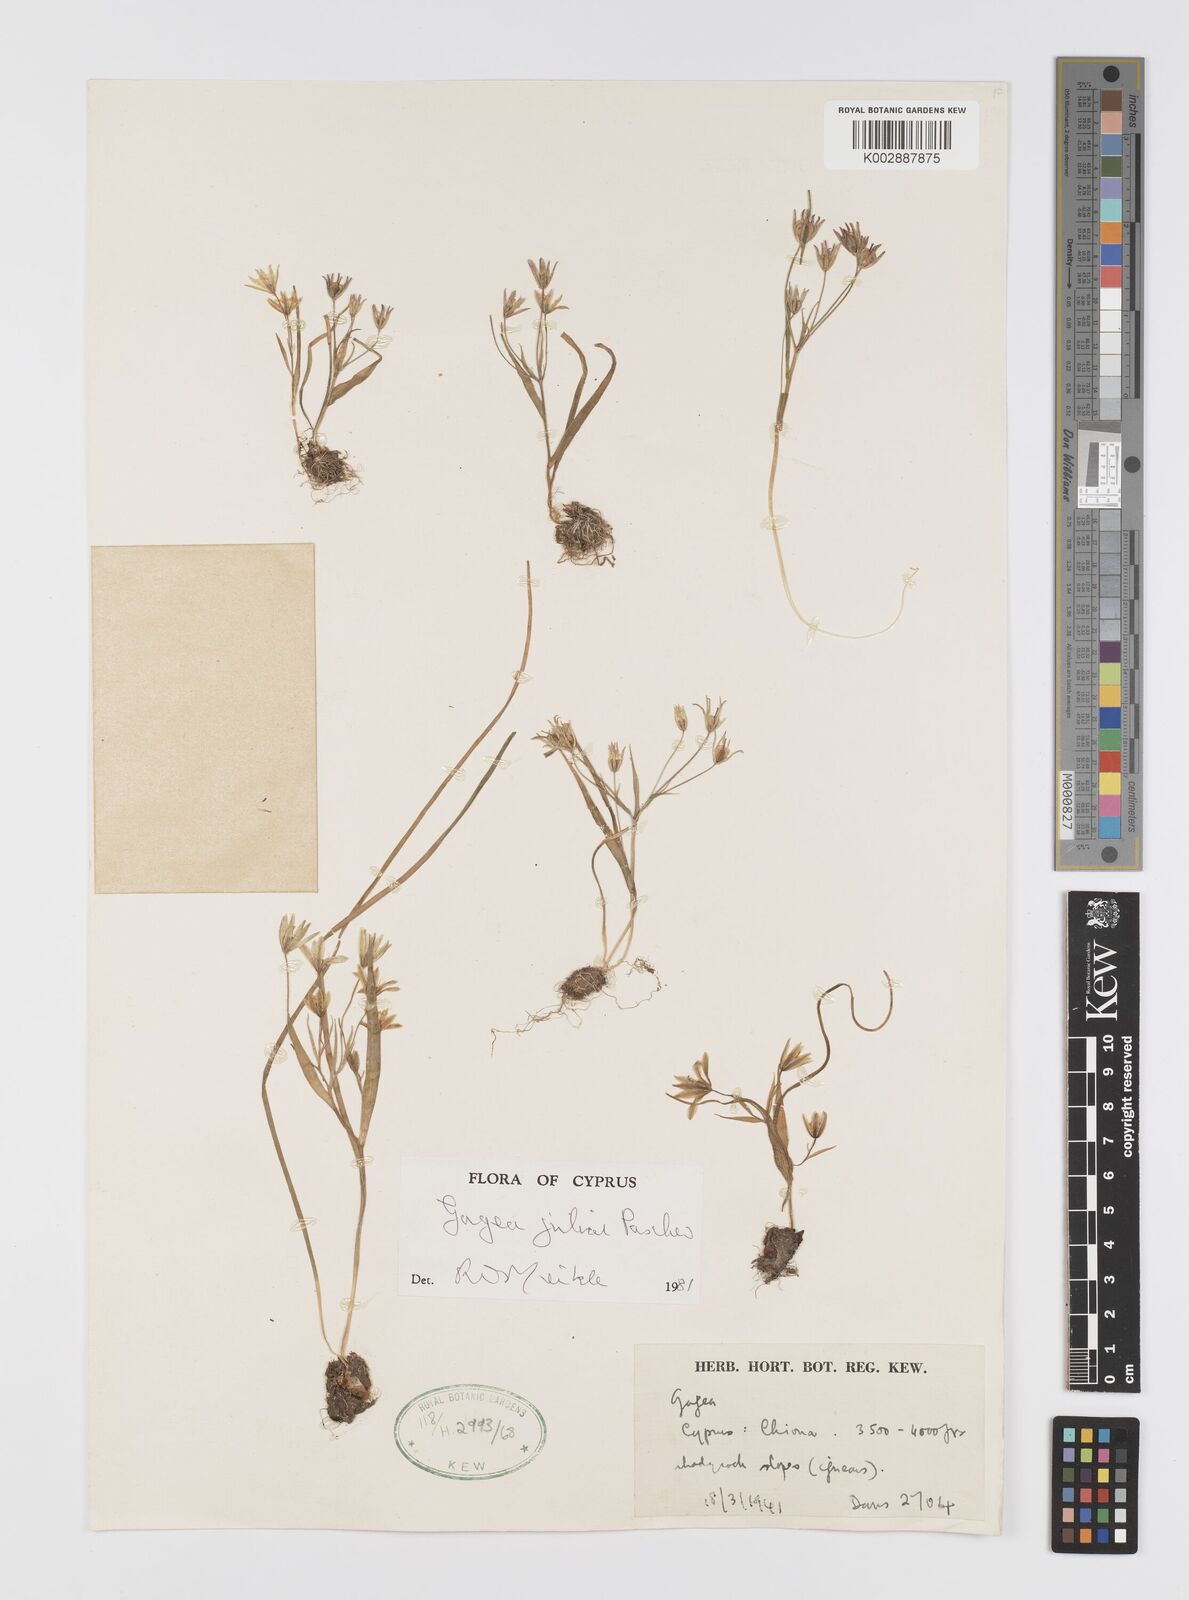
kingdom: Plantae
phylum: Tracheophyta
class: Liliopsida
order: Liliales
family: Liliaceae
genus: Gagea
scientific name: Gagea juliae
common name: Julia’s gagea
